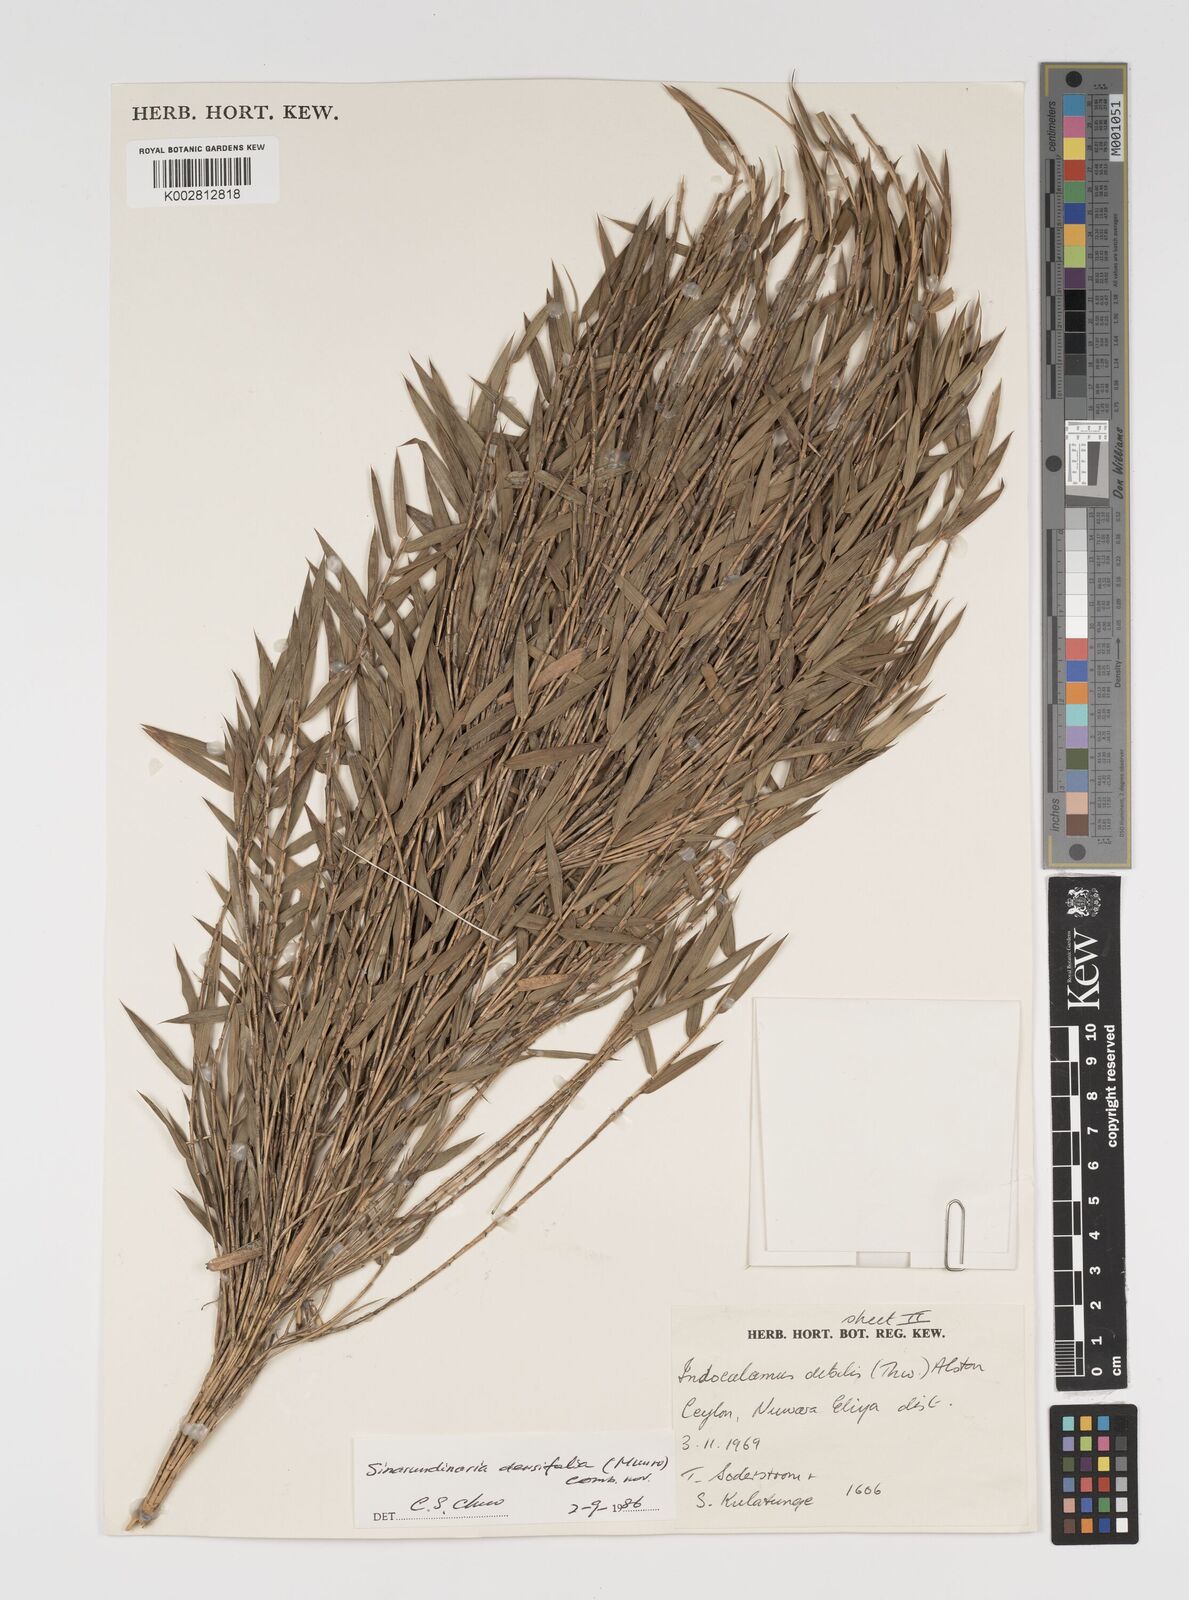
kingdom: Plantae
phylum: Tracheophyta
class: Liliopsida
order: Poales
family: Poaceae
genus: Kuruna
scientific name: Kuruna densifolia
